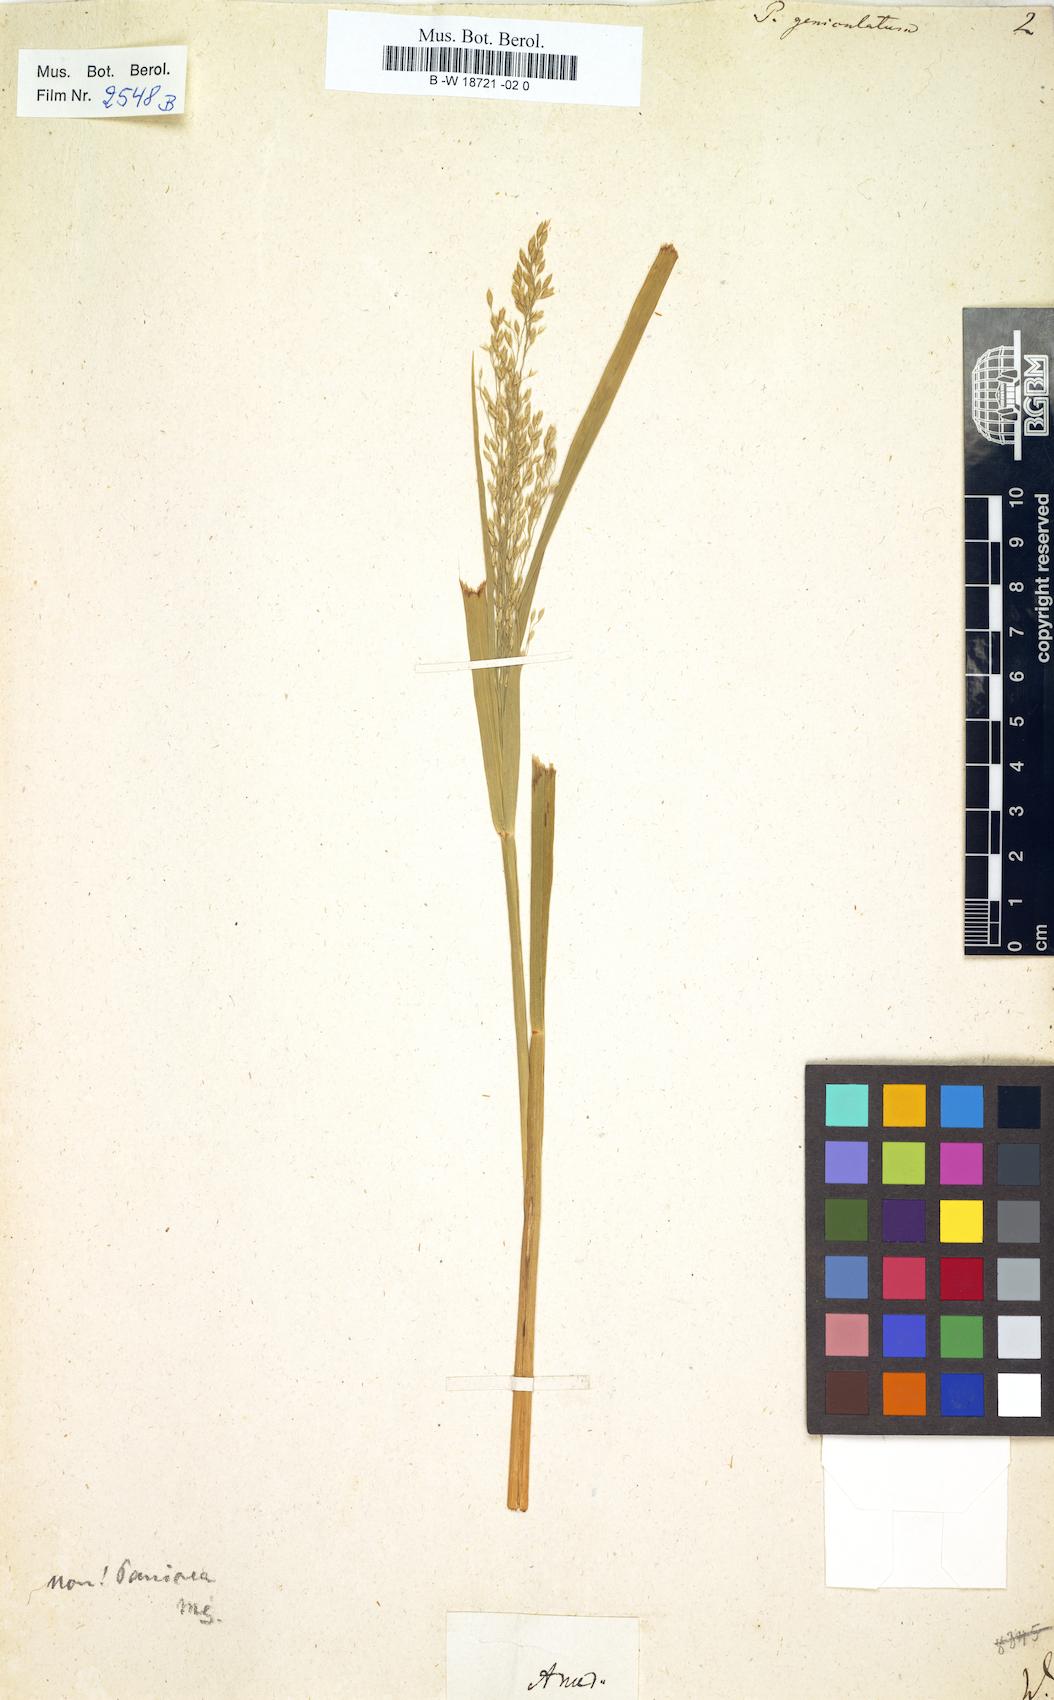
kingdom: Plantae
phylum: Tracheophyta
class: Liliopsida
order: Poales
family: Poaceae
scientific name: Poaceae
